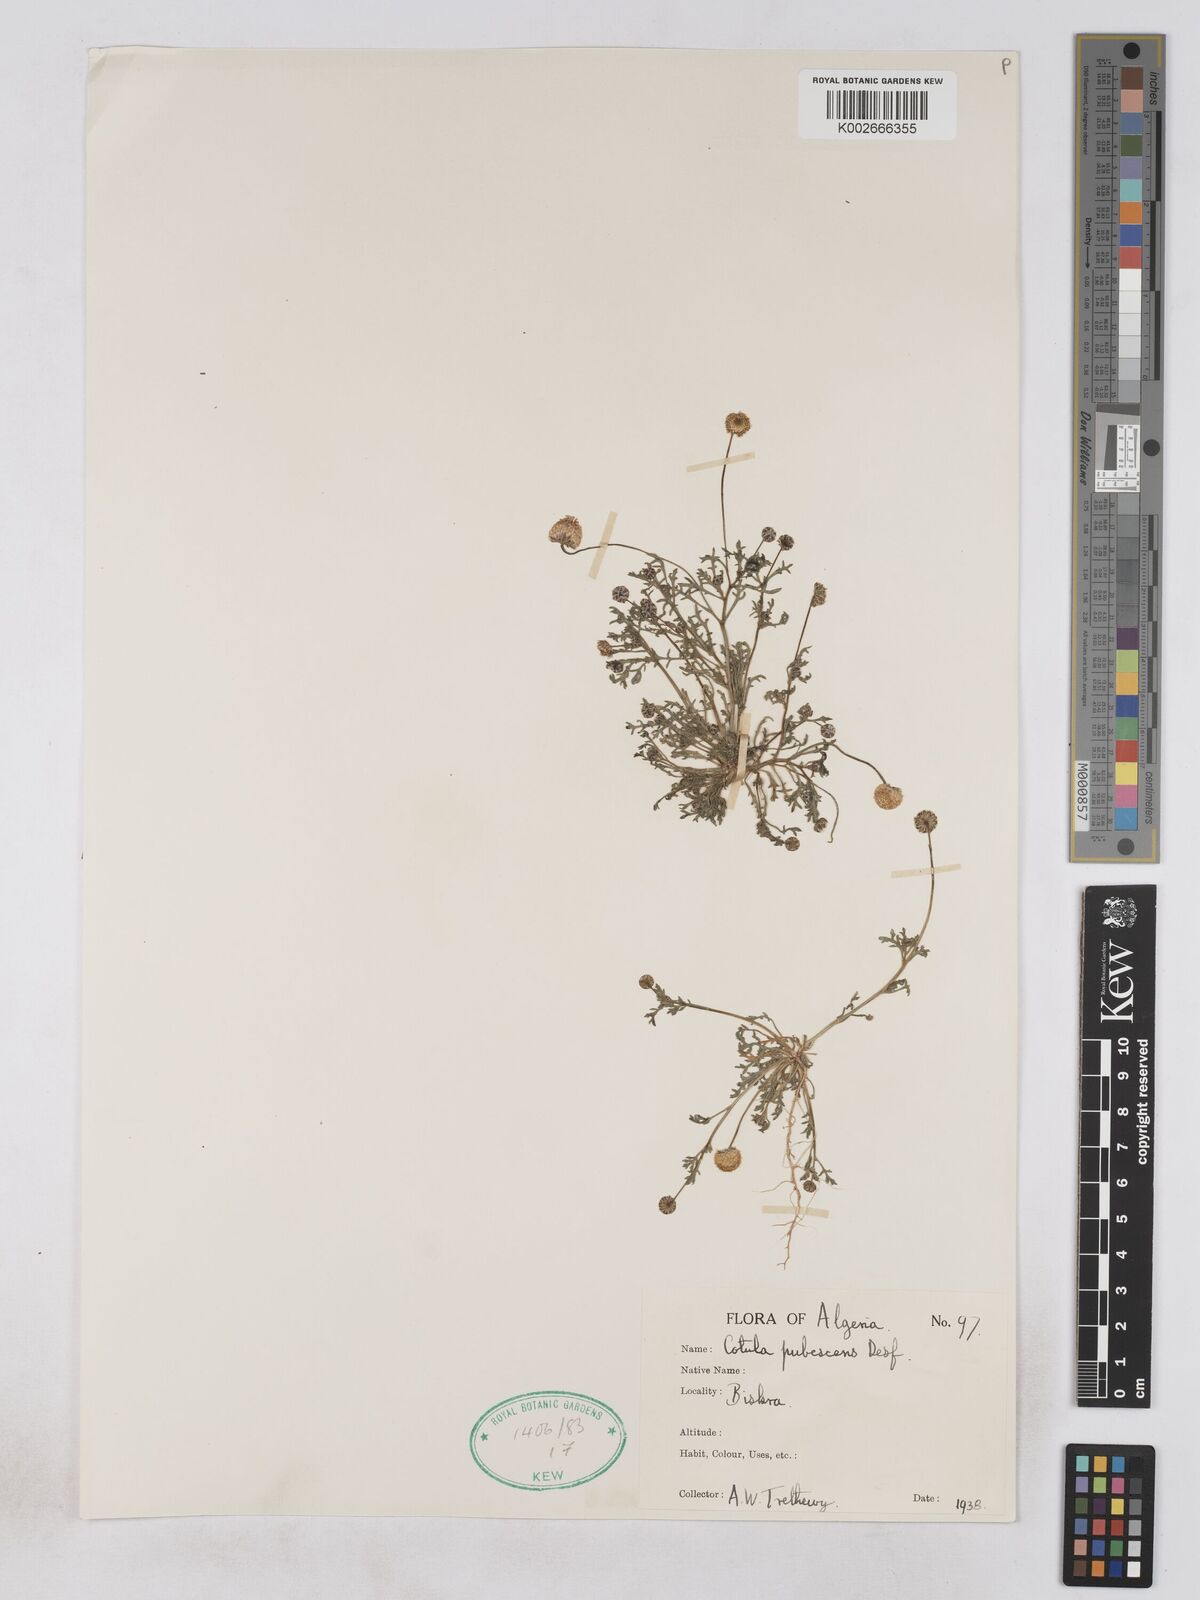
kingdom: Plantae
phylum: Tracheophyta
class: Magnoliopsida
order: Asterales
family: Asteraceae
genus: Otoglyphis
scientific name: Otoglyphis pubescens
